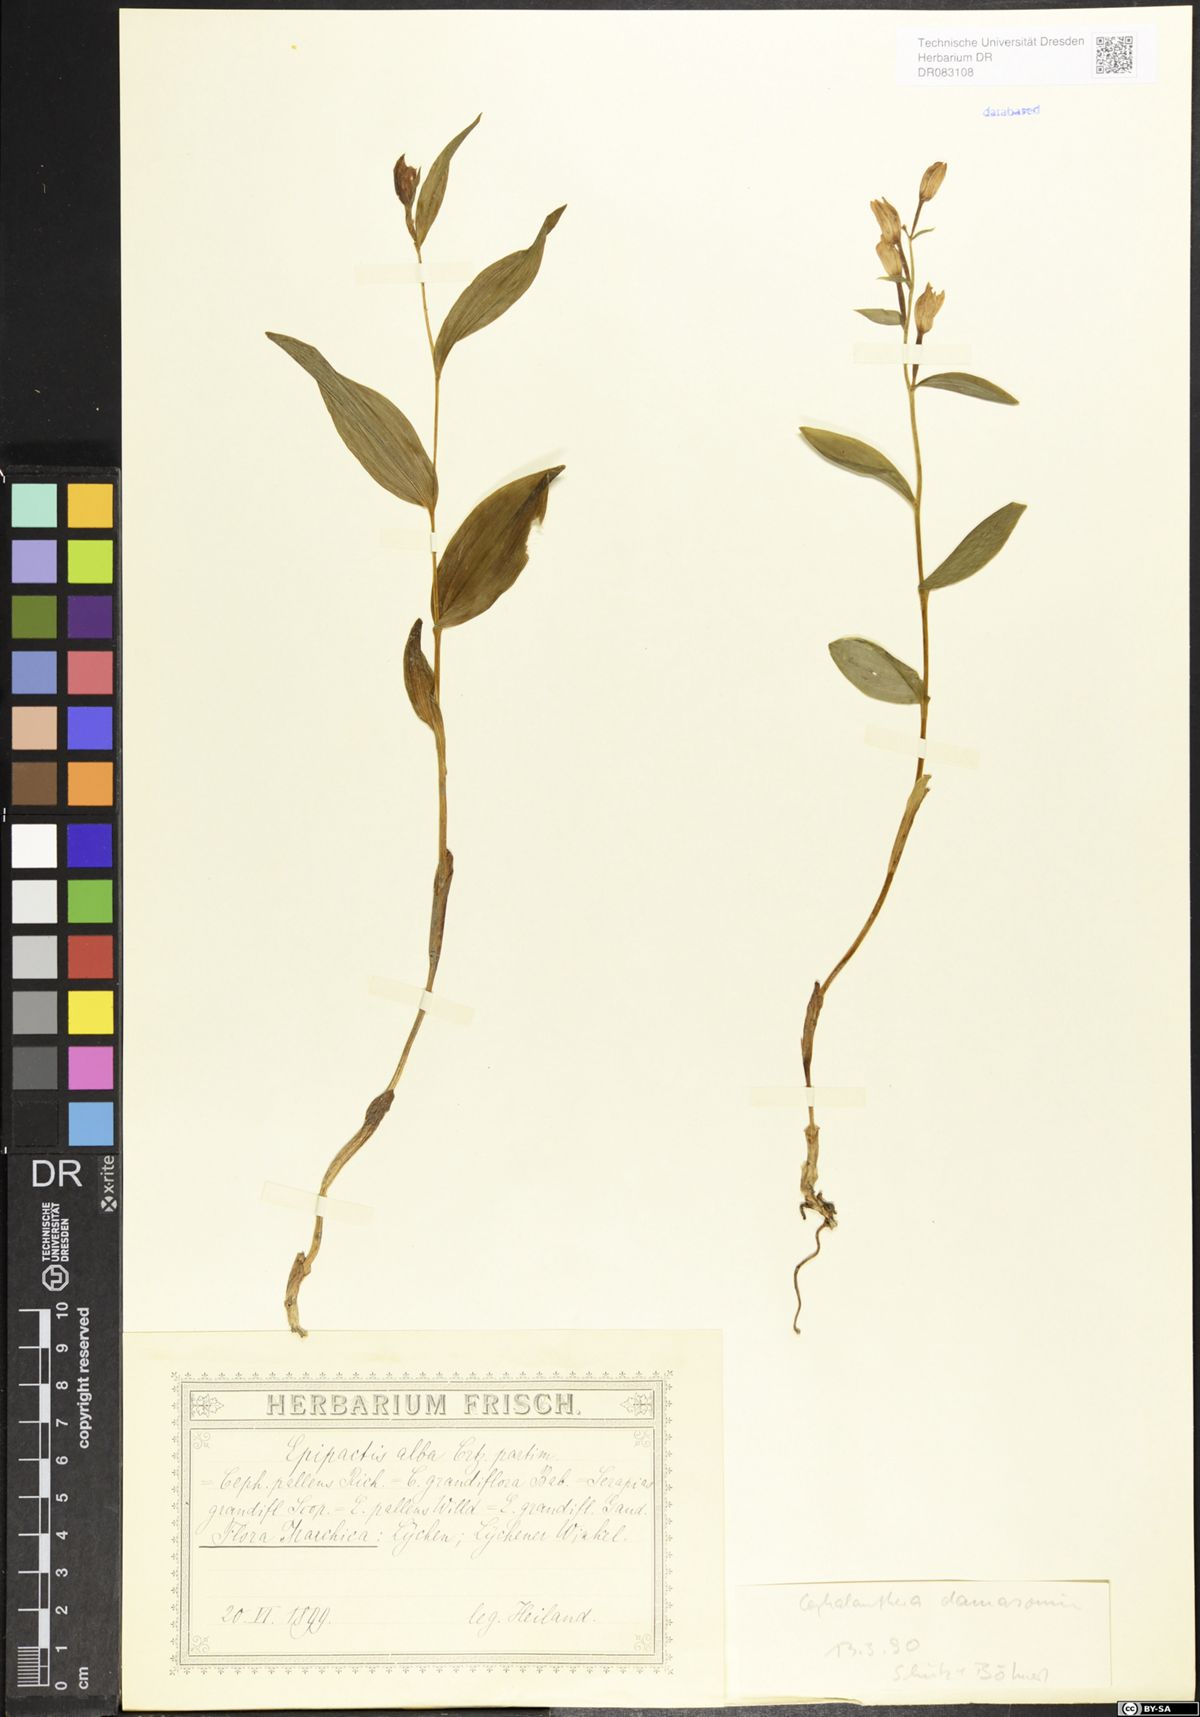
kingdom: Plantae
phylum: Tracheophyta
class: Liliopsida
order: Asparagales
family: Orchidaceae
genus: Cephalanthera
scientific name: Cephalanthera damasonium
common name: White helleborine
